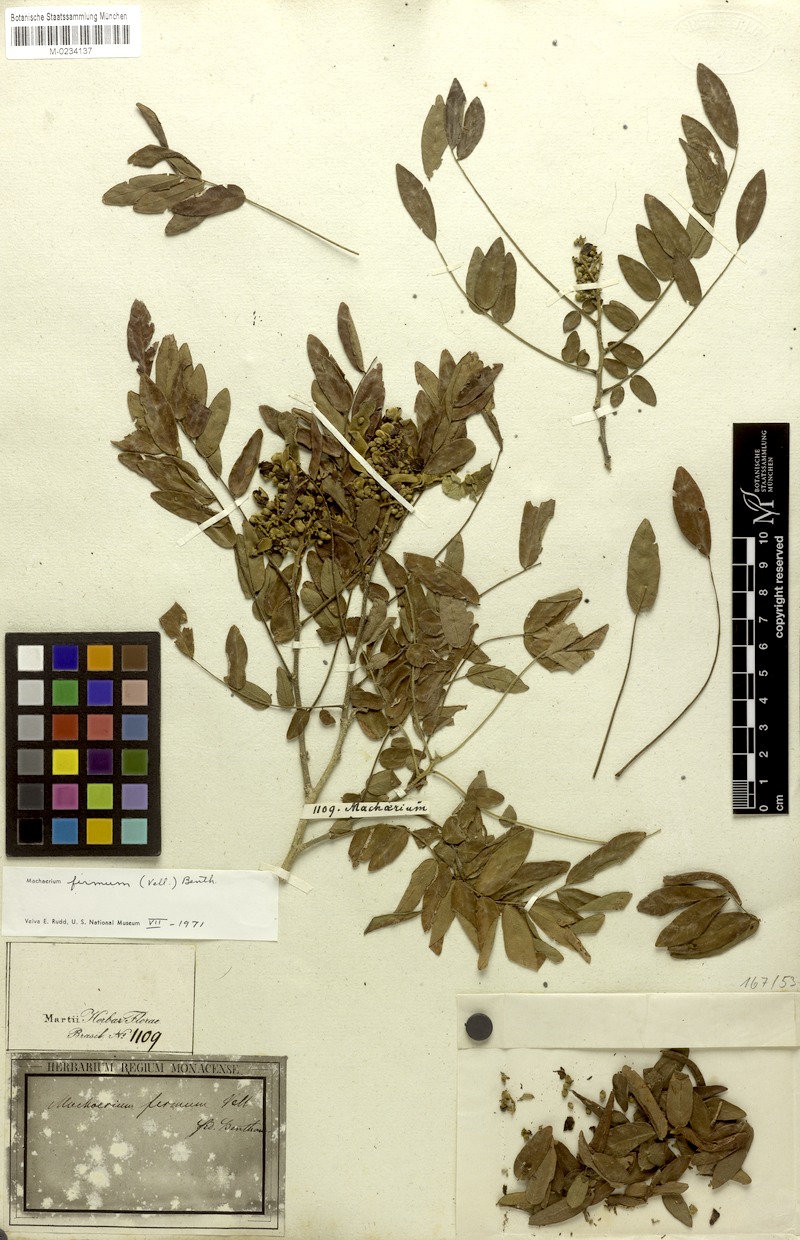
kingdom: Plantae
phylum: Tracheophyta
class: Magnoliopsida
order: Fabales
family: Fabaceae
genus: Machaerium
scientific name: Machaerium firmum
